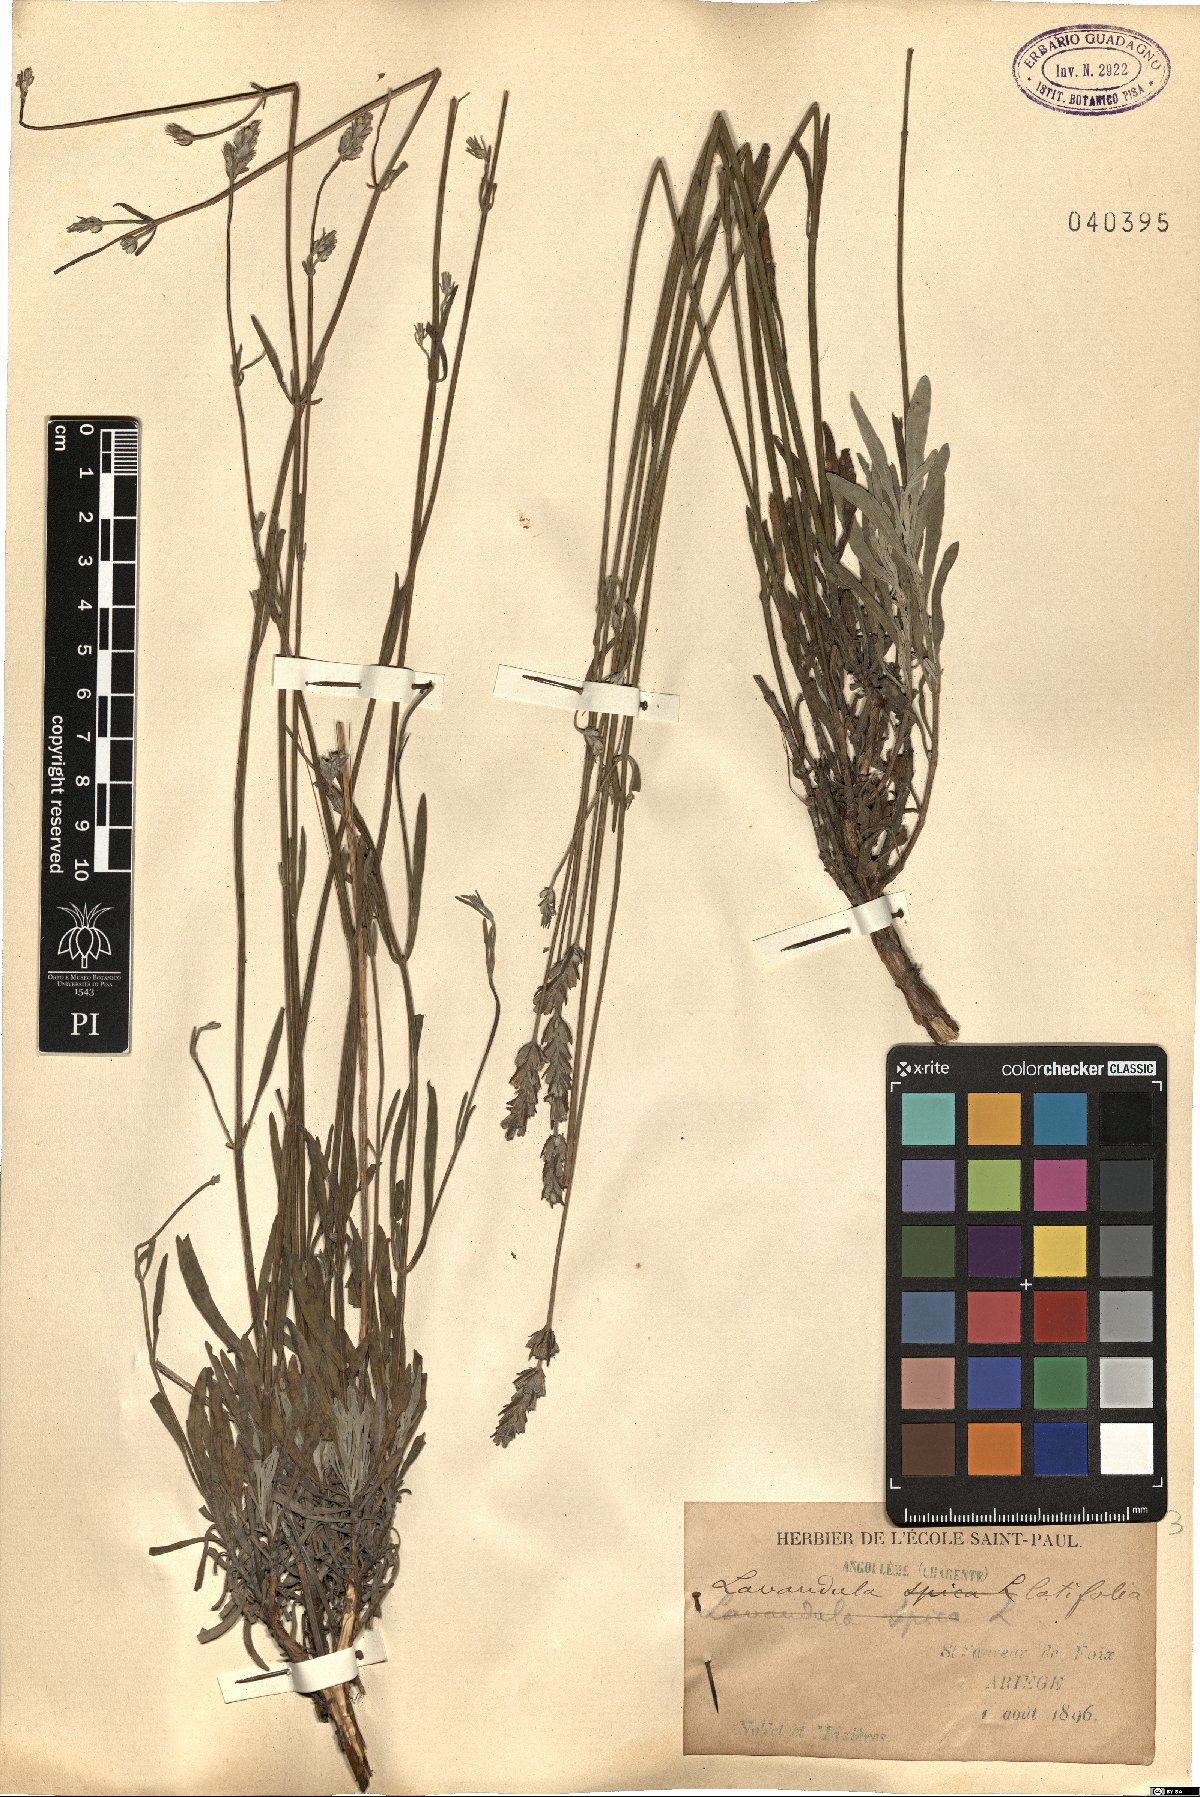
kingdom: Plantae
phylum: Tracheophyta
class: Magnoliopsida
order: Lamiales
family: Lamiaceae
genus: Lavandula
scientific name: Lavandula latifolia
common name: Spike lavendar
